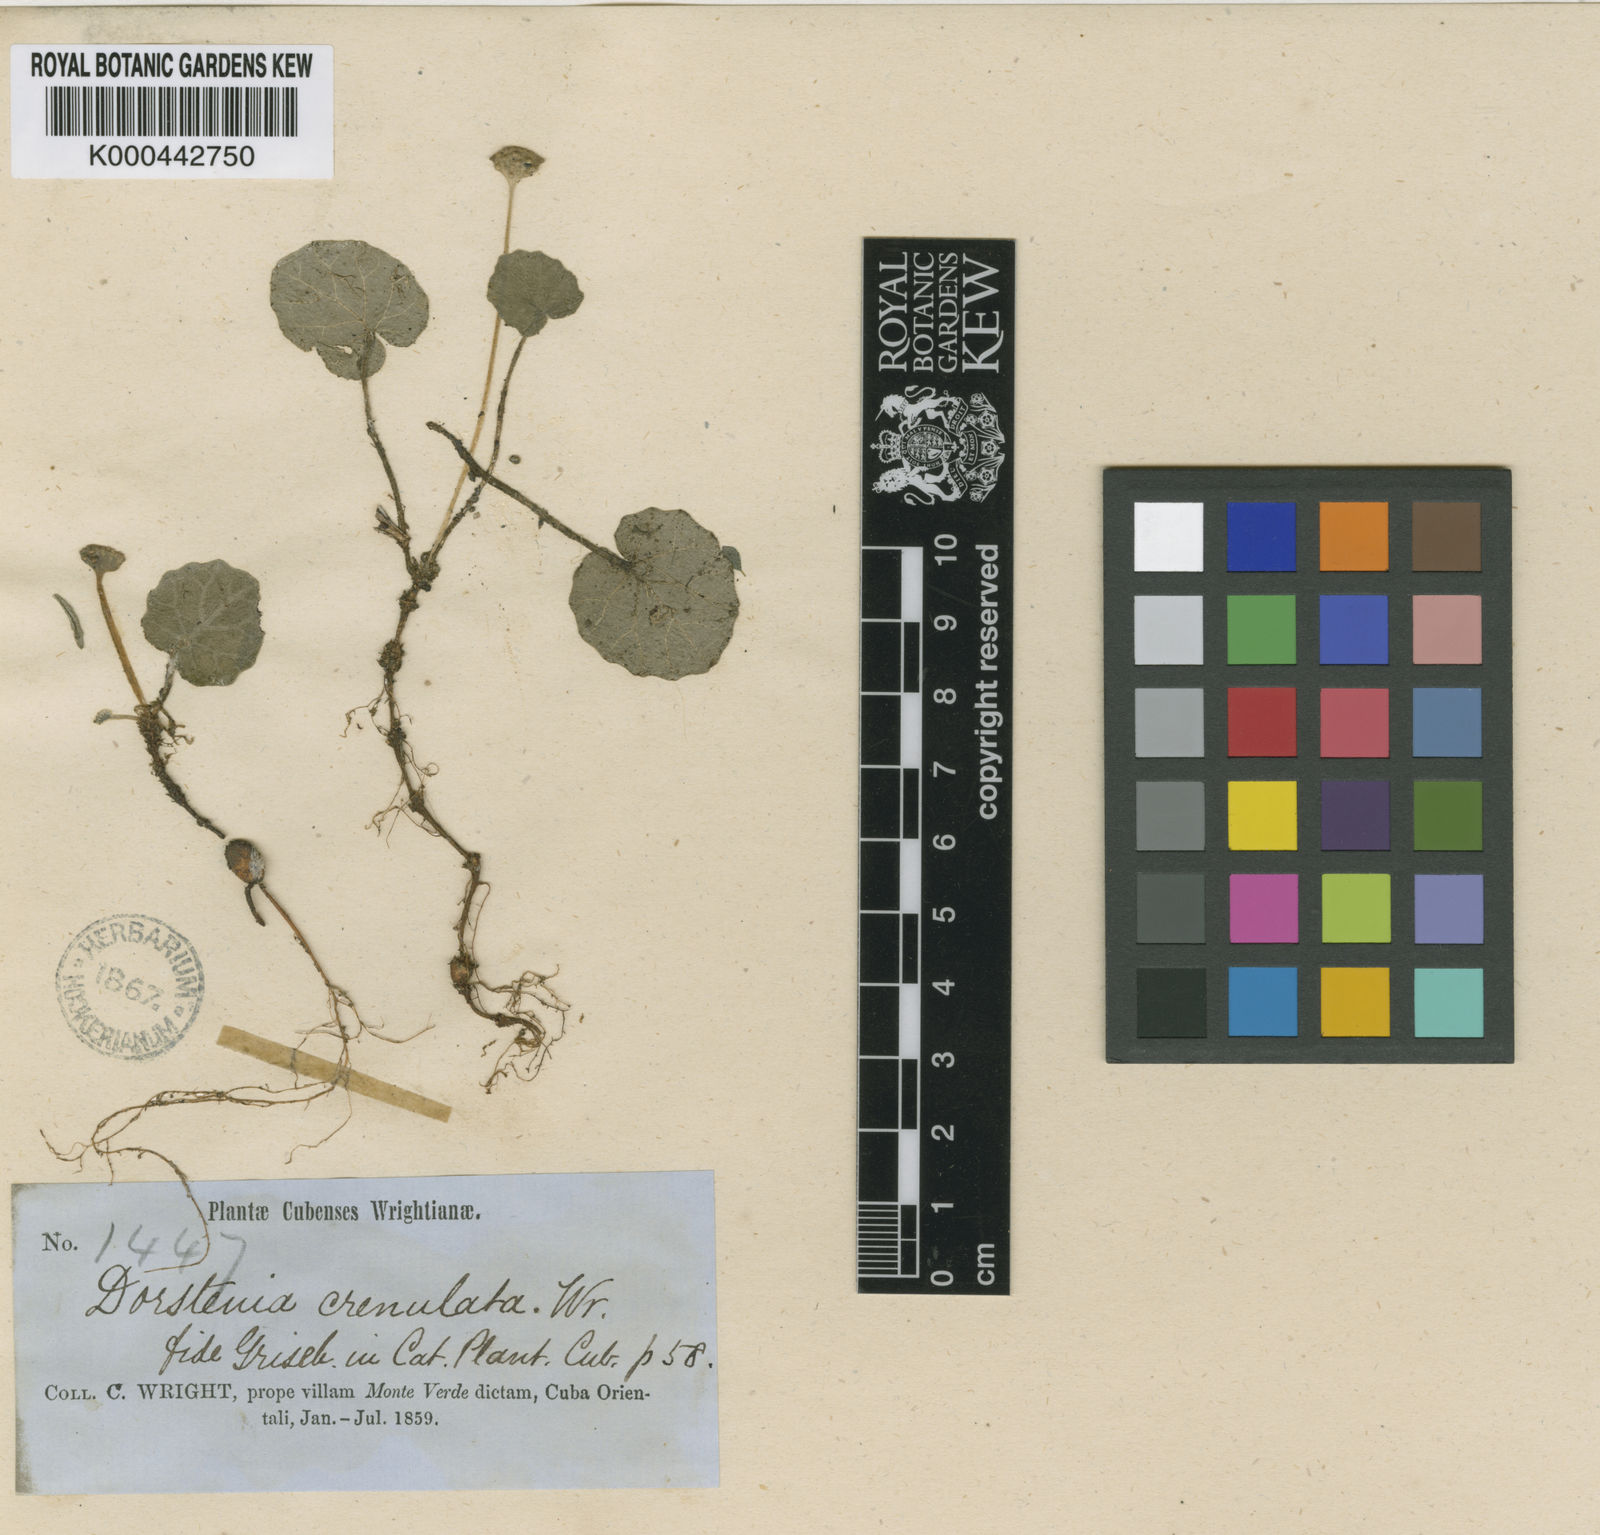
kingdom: Plantae
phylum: Tracheophyta
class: Magnoliopsida
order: Rosales
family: Moraceae
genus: Dorstenia
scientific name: Dorstenia crenulata
